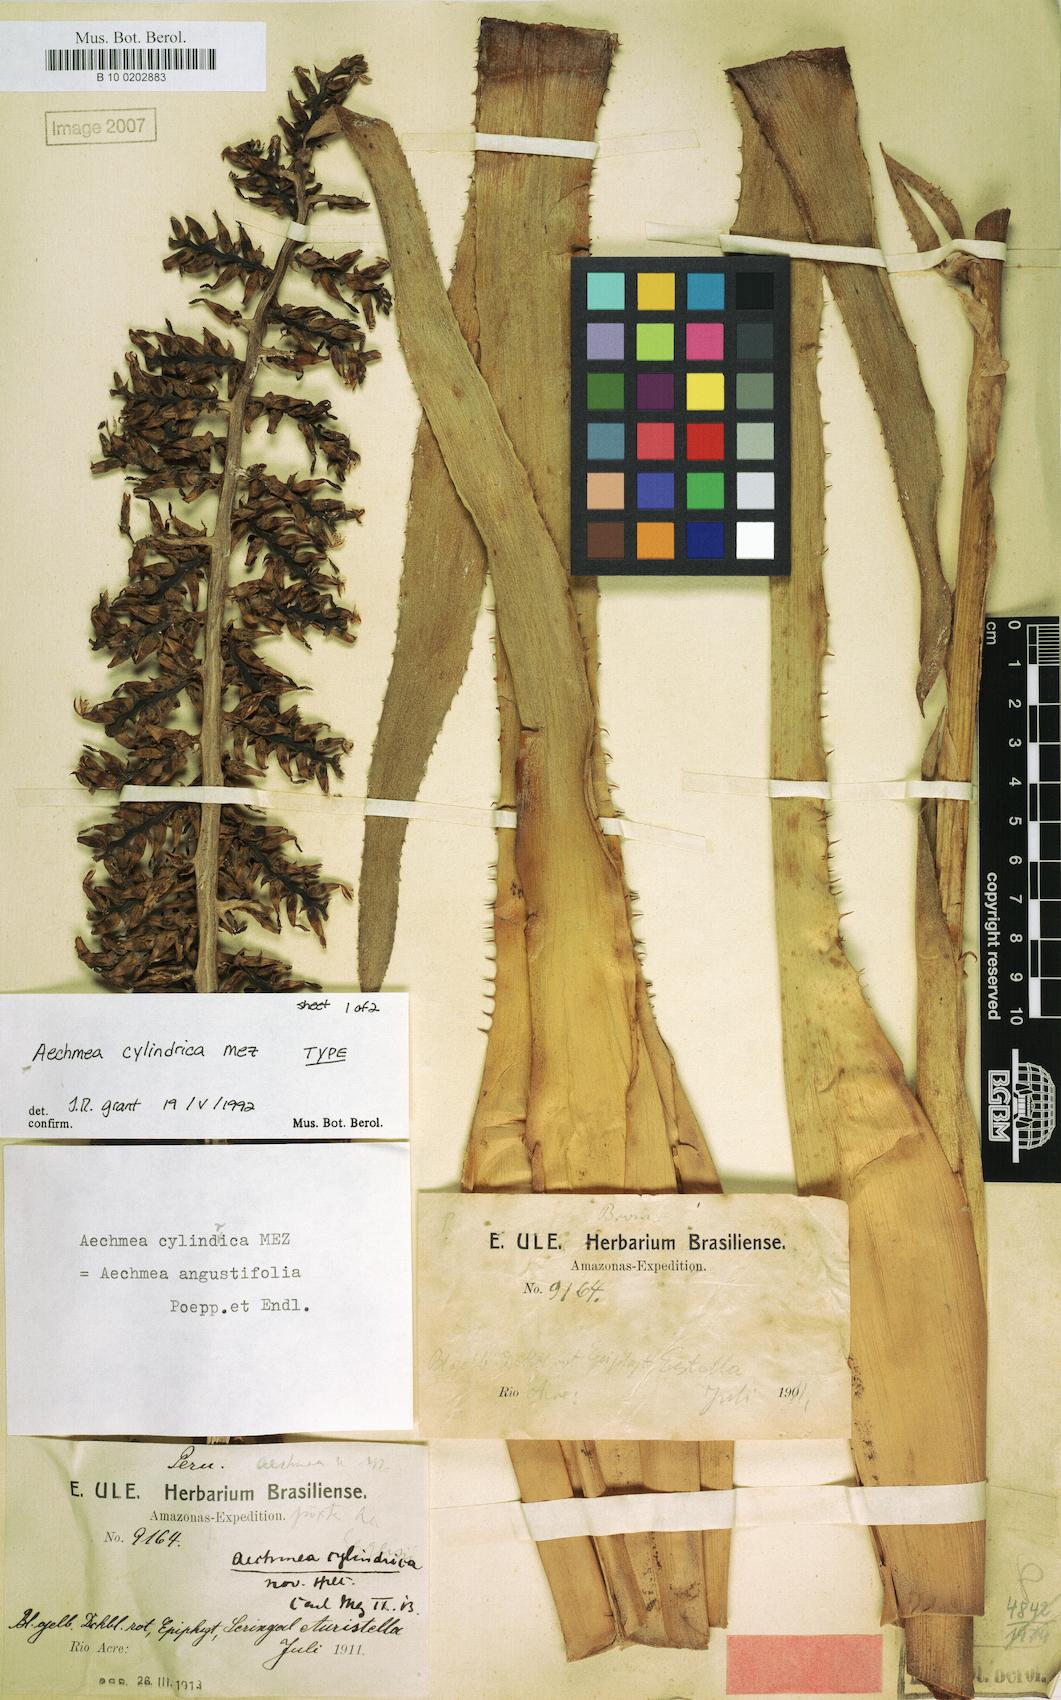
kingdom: Plantae
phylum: Tracheophyta
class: Liliopsida
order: Poales
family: Bromeliaceae
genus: Aechmea
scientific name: Aechmea angustifolia
